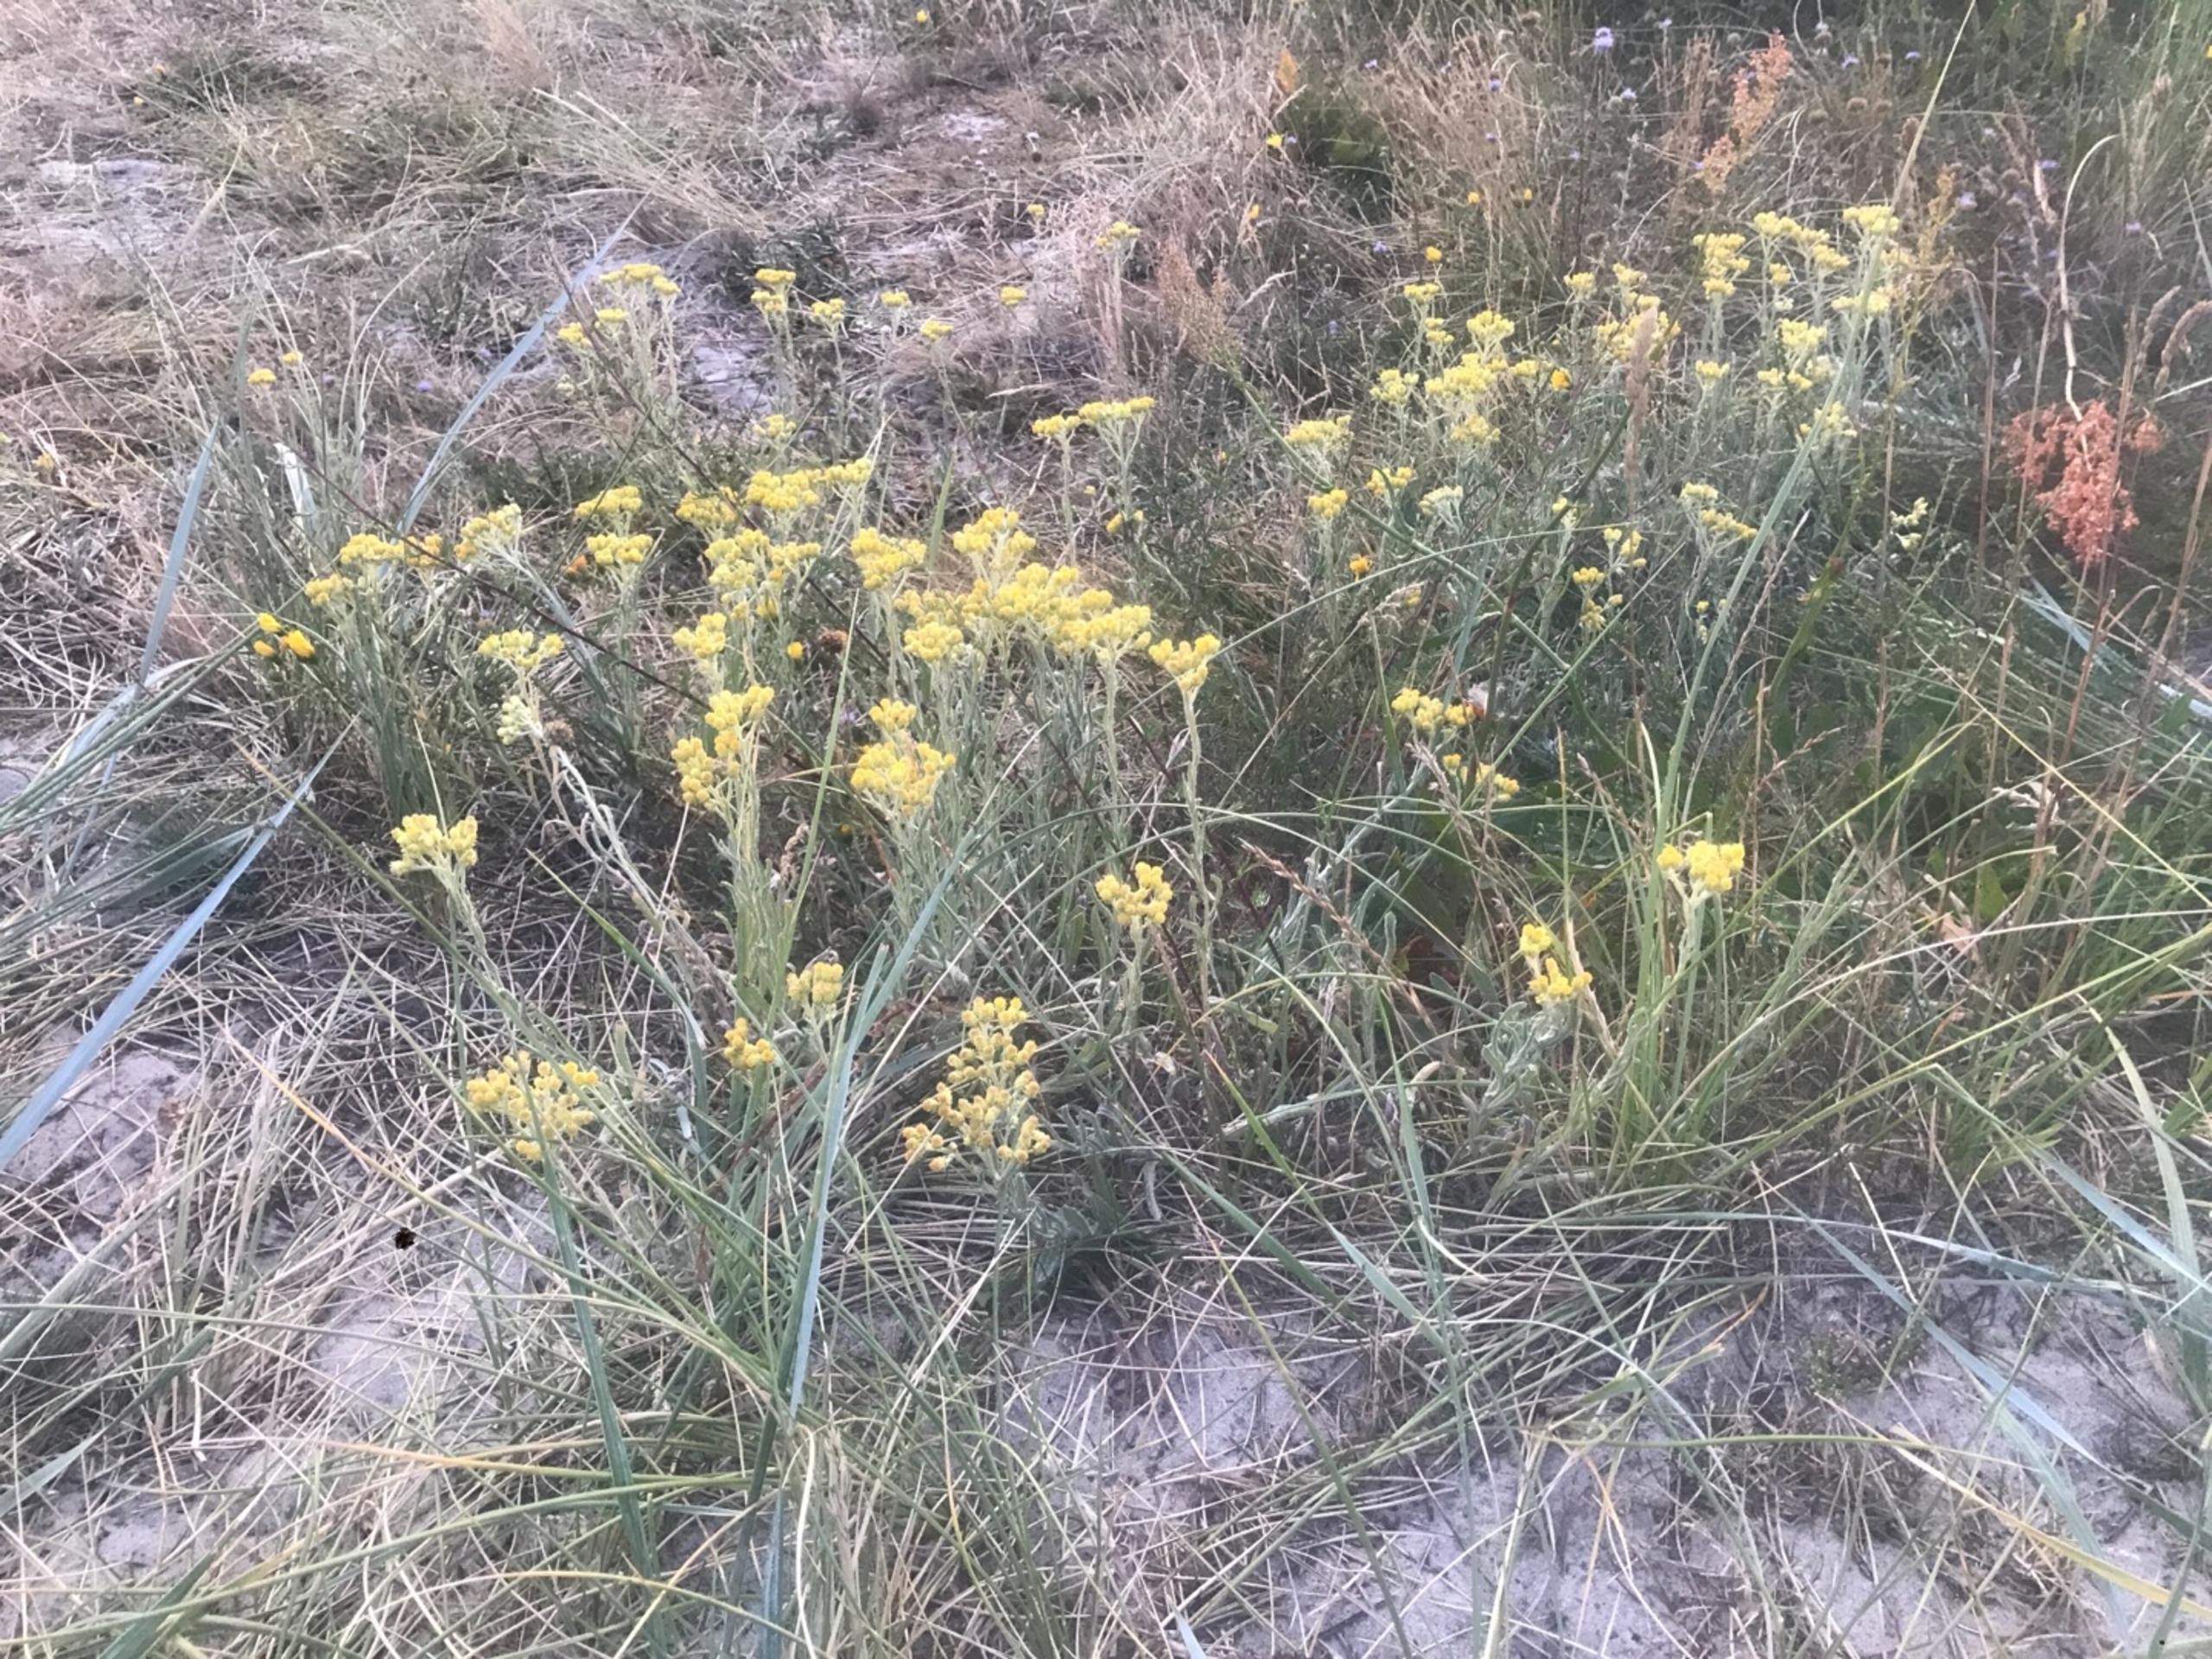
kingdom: Plantae
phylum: Tracheophyta
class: Magnoliopsida
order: Asterales
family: Asteraceae
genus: Helichrysum
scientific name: Helichrysum arenarium
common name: Gul evighedsblomst
